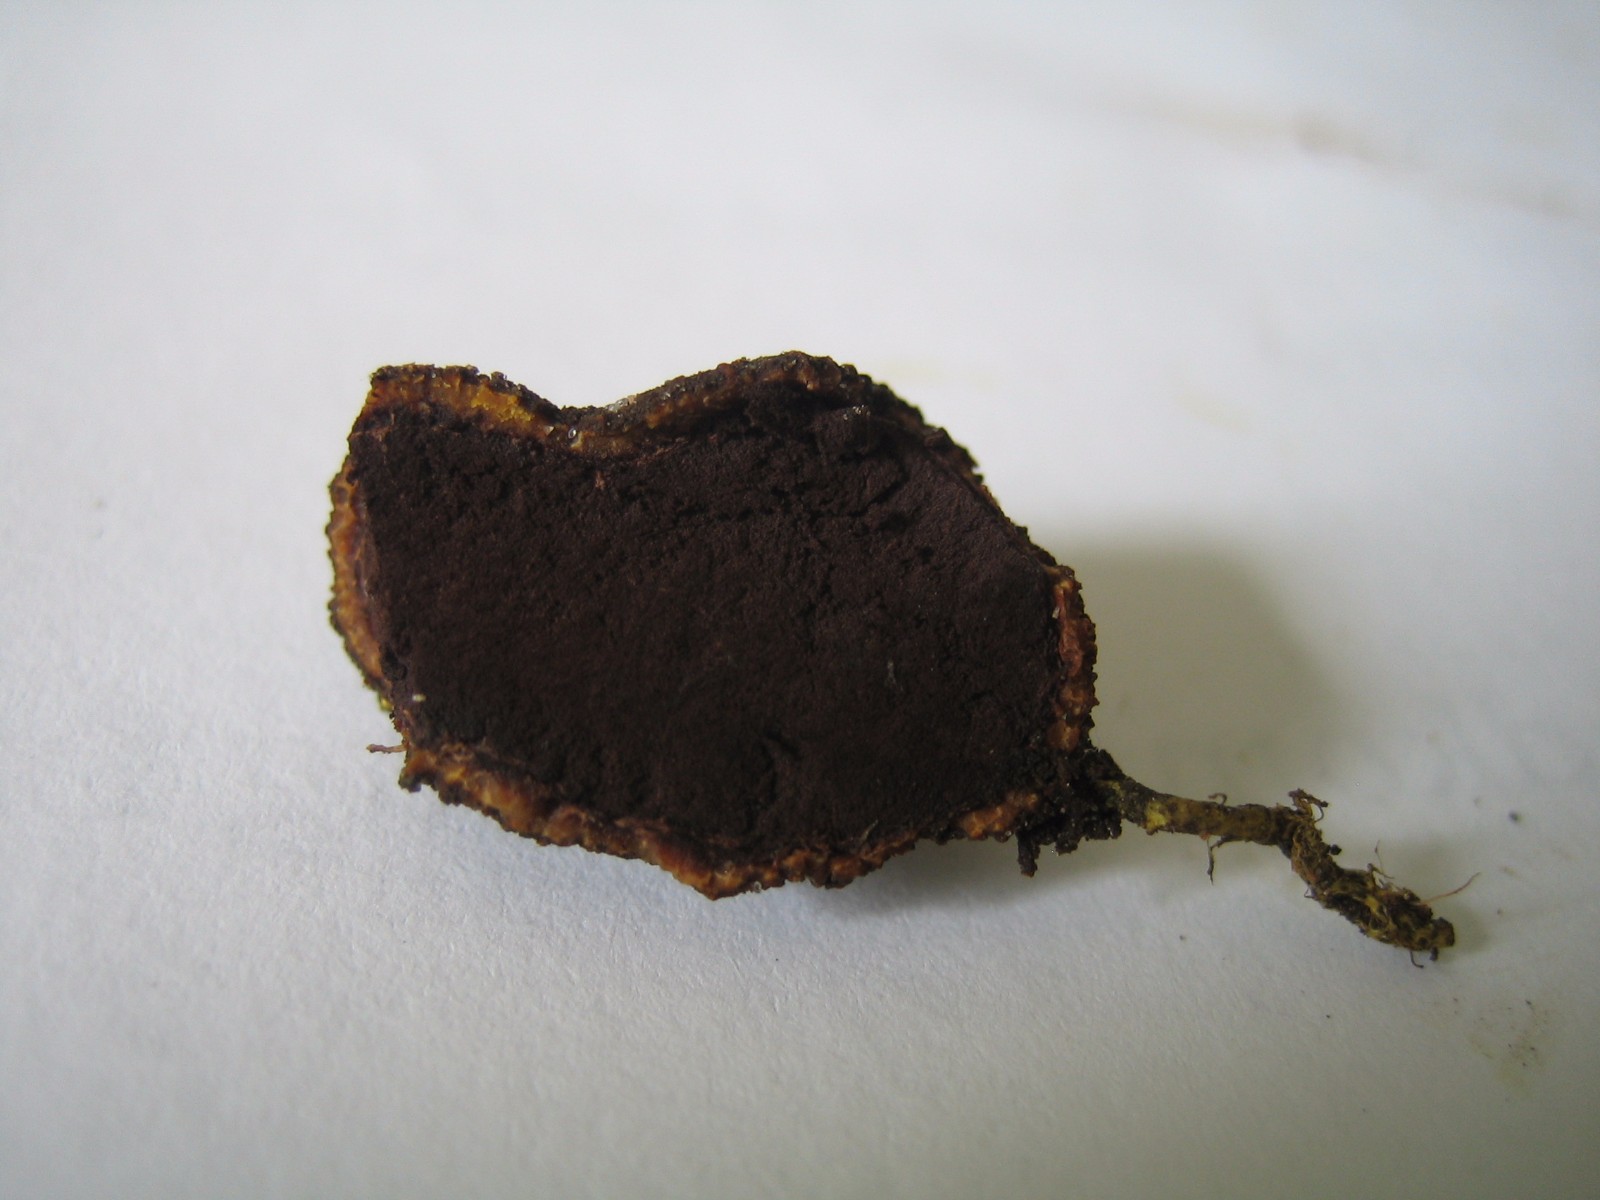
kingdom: Fungi
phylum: Ascomycota
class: Eurotiomycetes
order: Eurotiales
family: Elaphomycetaceae
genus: Elaphomyces
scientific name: Elaphomyces muricatus
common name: vortet hjortetrøffel
